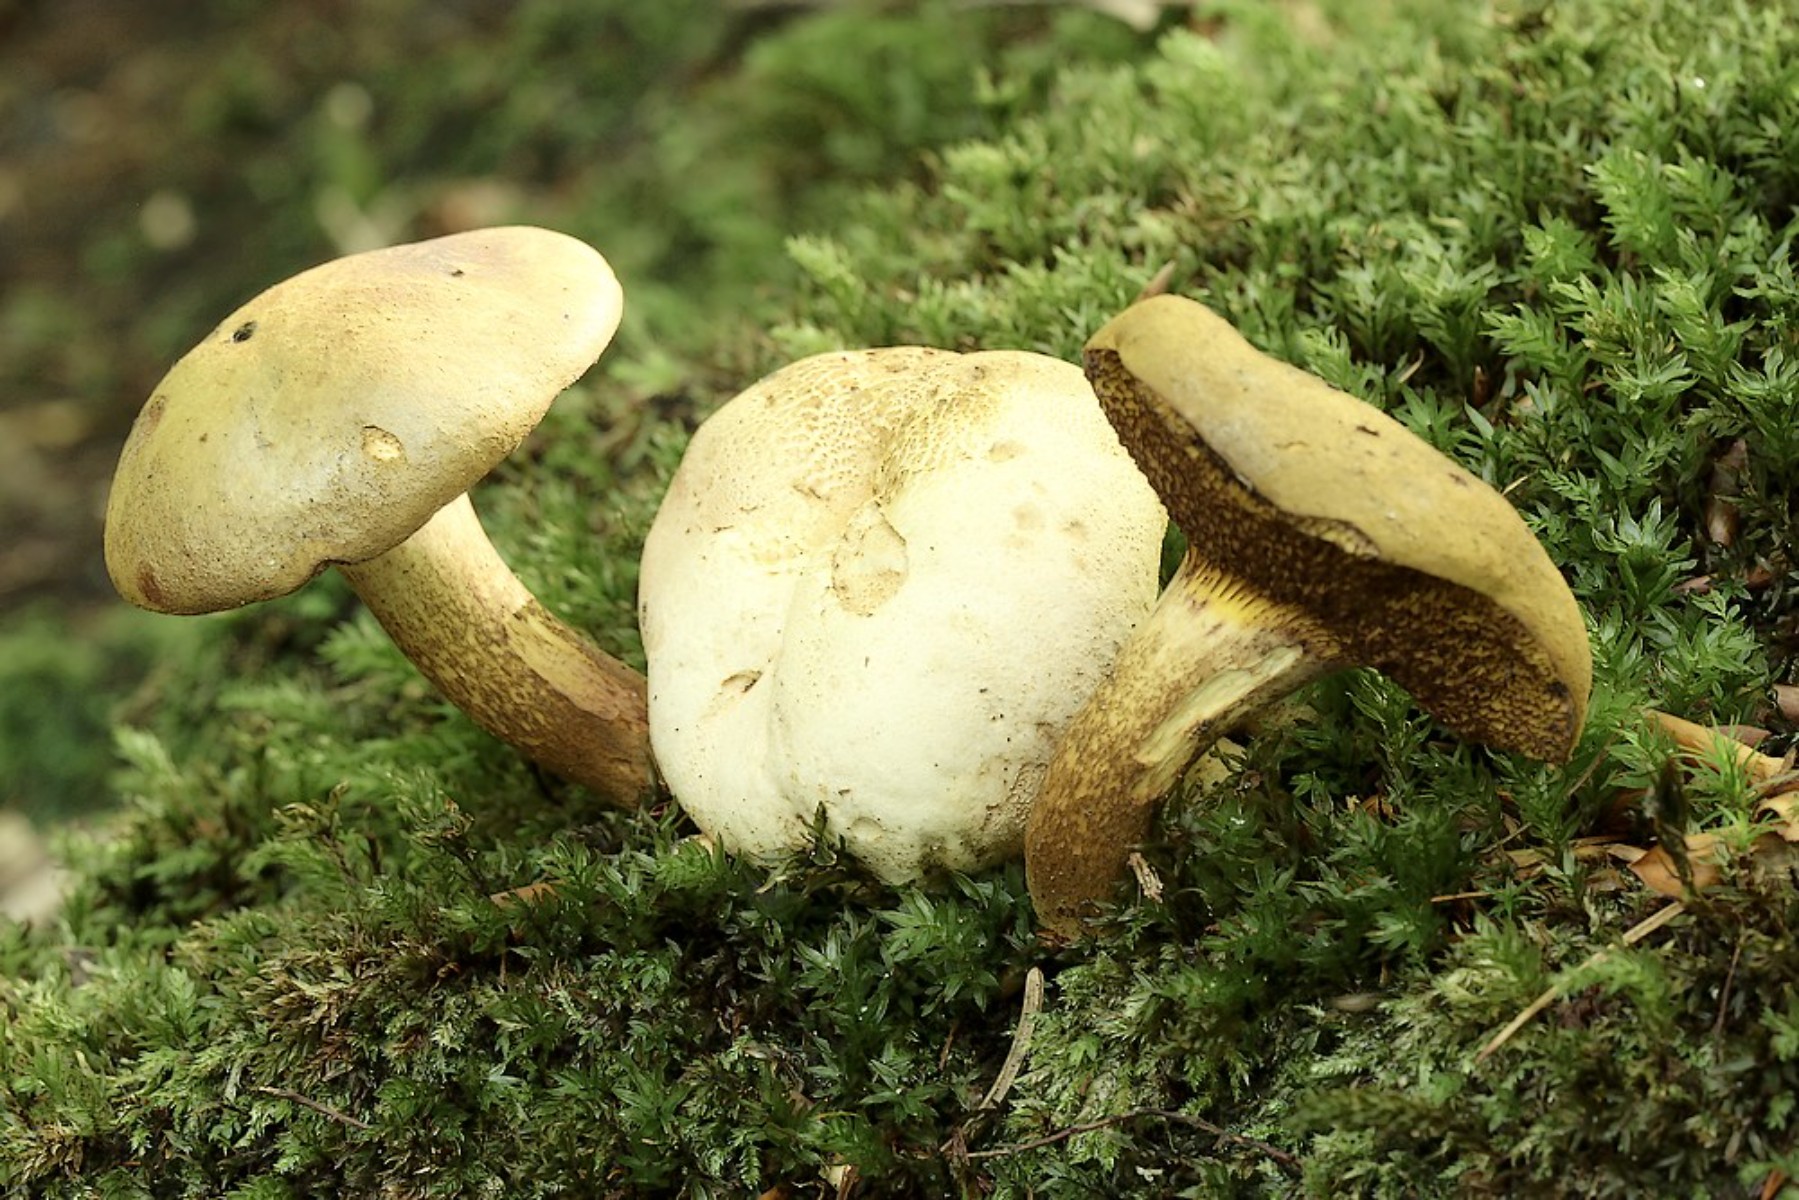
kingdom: Fungi
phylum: Basidiomycota
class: Agaricomycetes
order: Boletales
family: Boletaceae
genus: Pseudoboletus
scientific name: Pseudoboletus parasiticus
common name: snyltende rørhat
